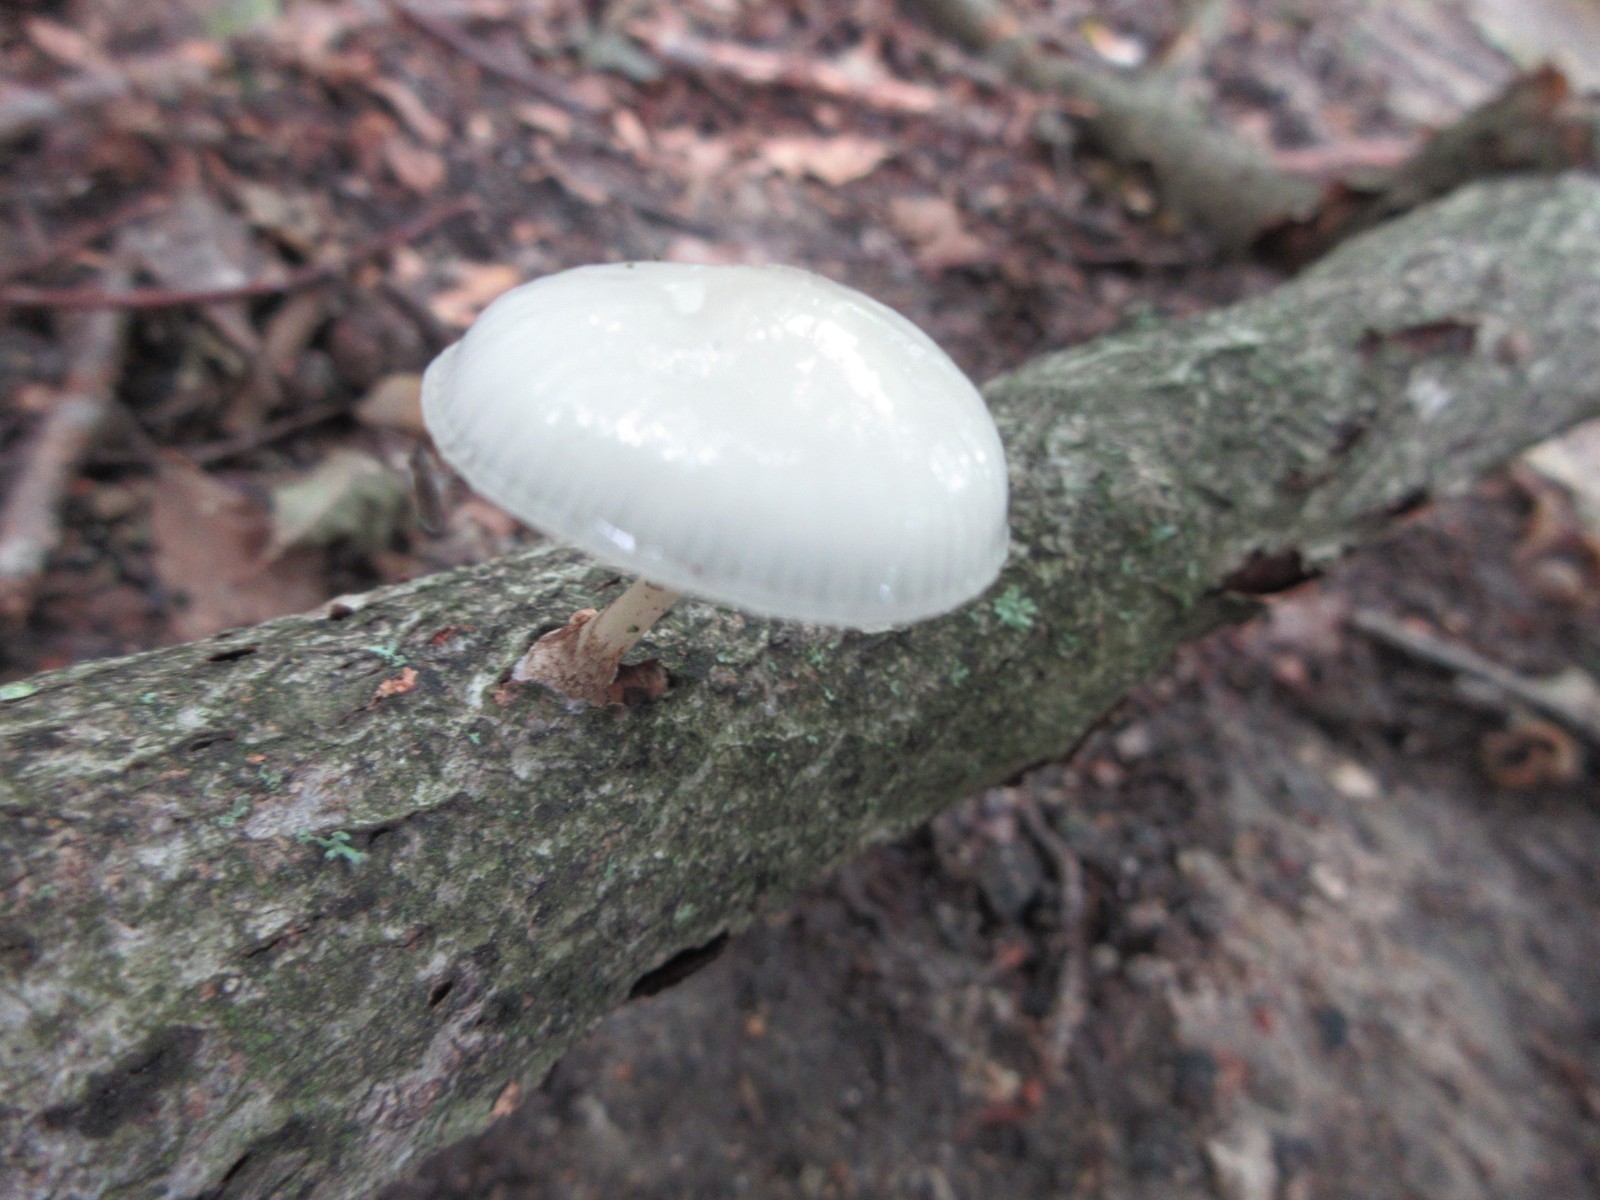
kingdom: Fungi
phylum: Basidiomycota
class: Agaricomycetes
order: Agaricales
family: Physalacriaceae
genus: Mucidula
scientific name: Mucidula mucida
